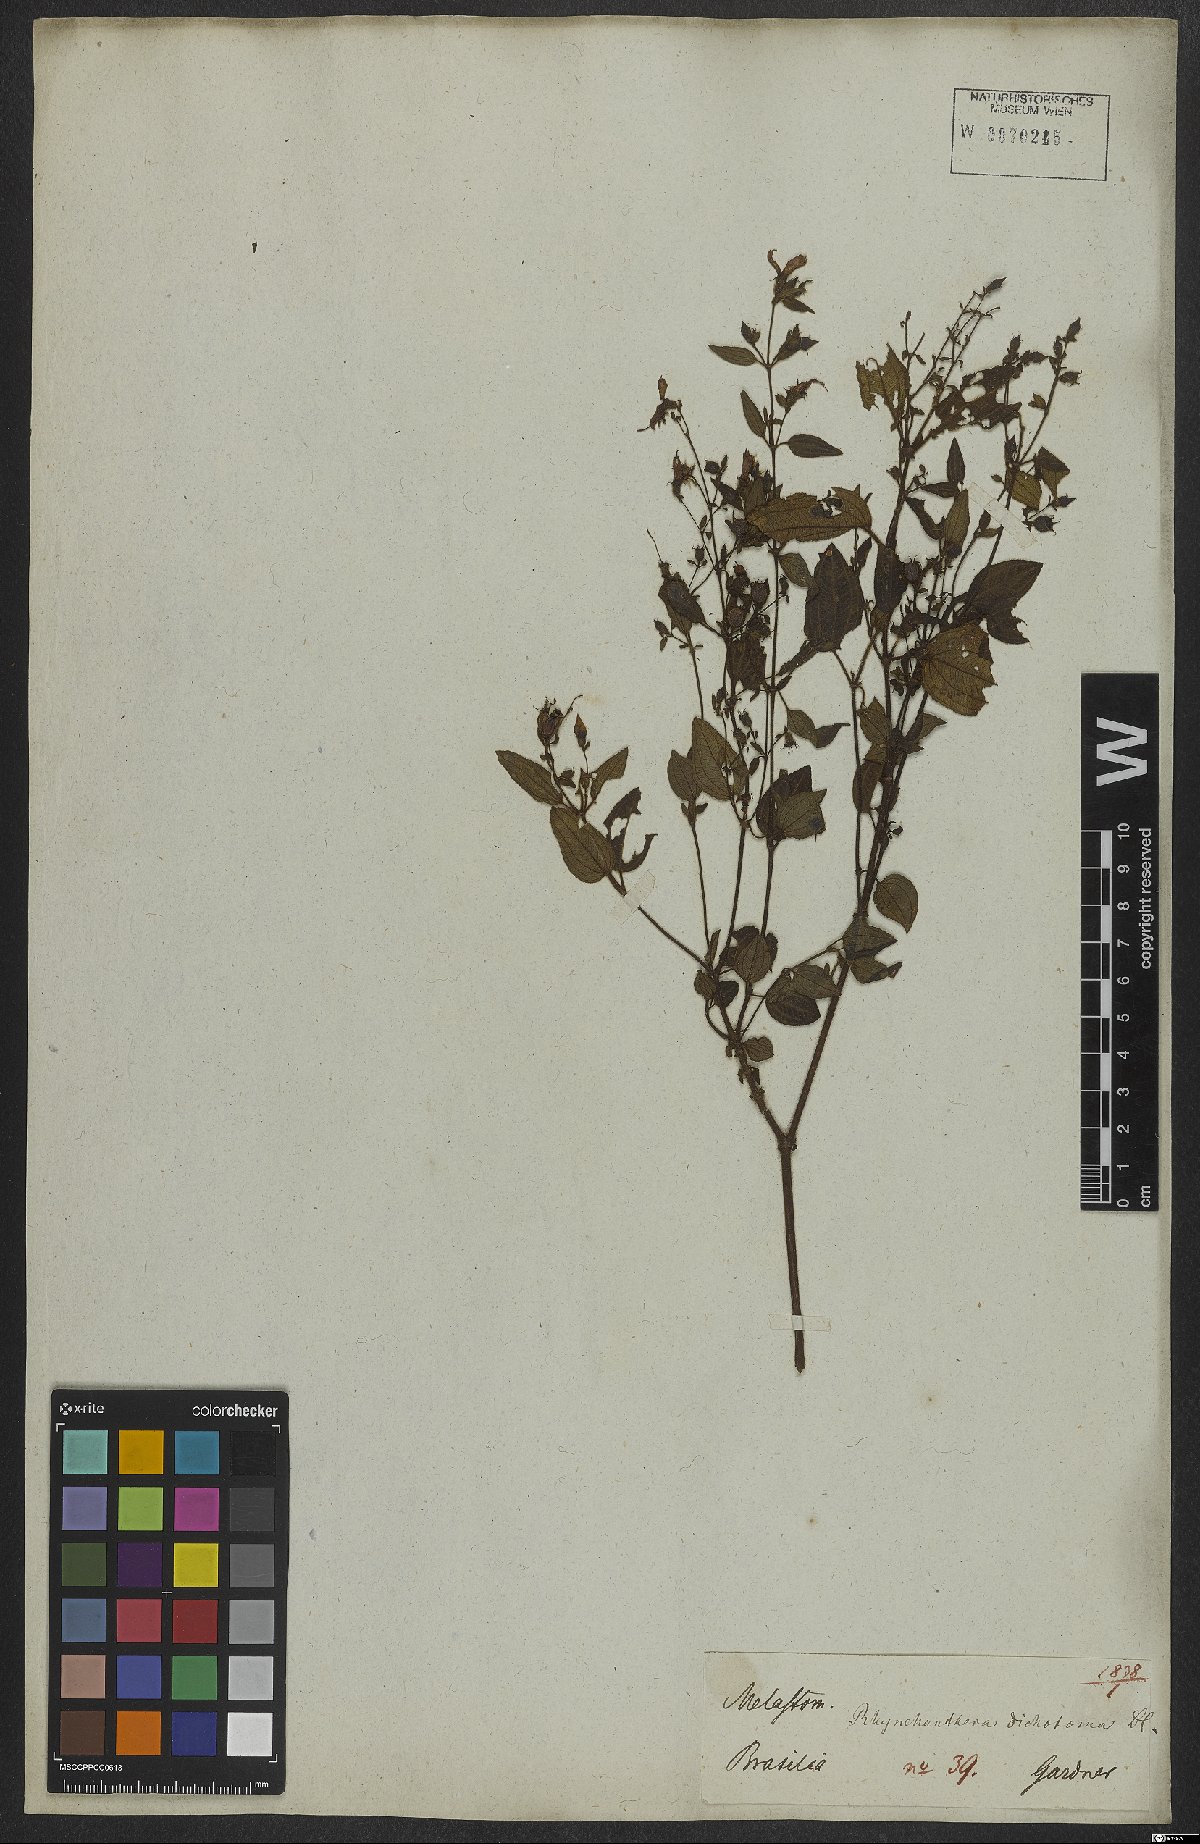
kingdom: Plantae
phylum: Tracheophyta
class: Magnoliopsida
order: Myrtales
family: Melastomataceae
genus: Rhynchanthera
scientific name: Rhynchanthera dichotoma
